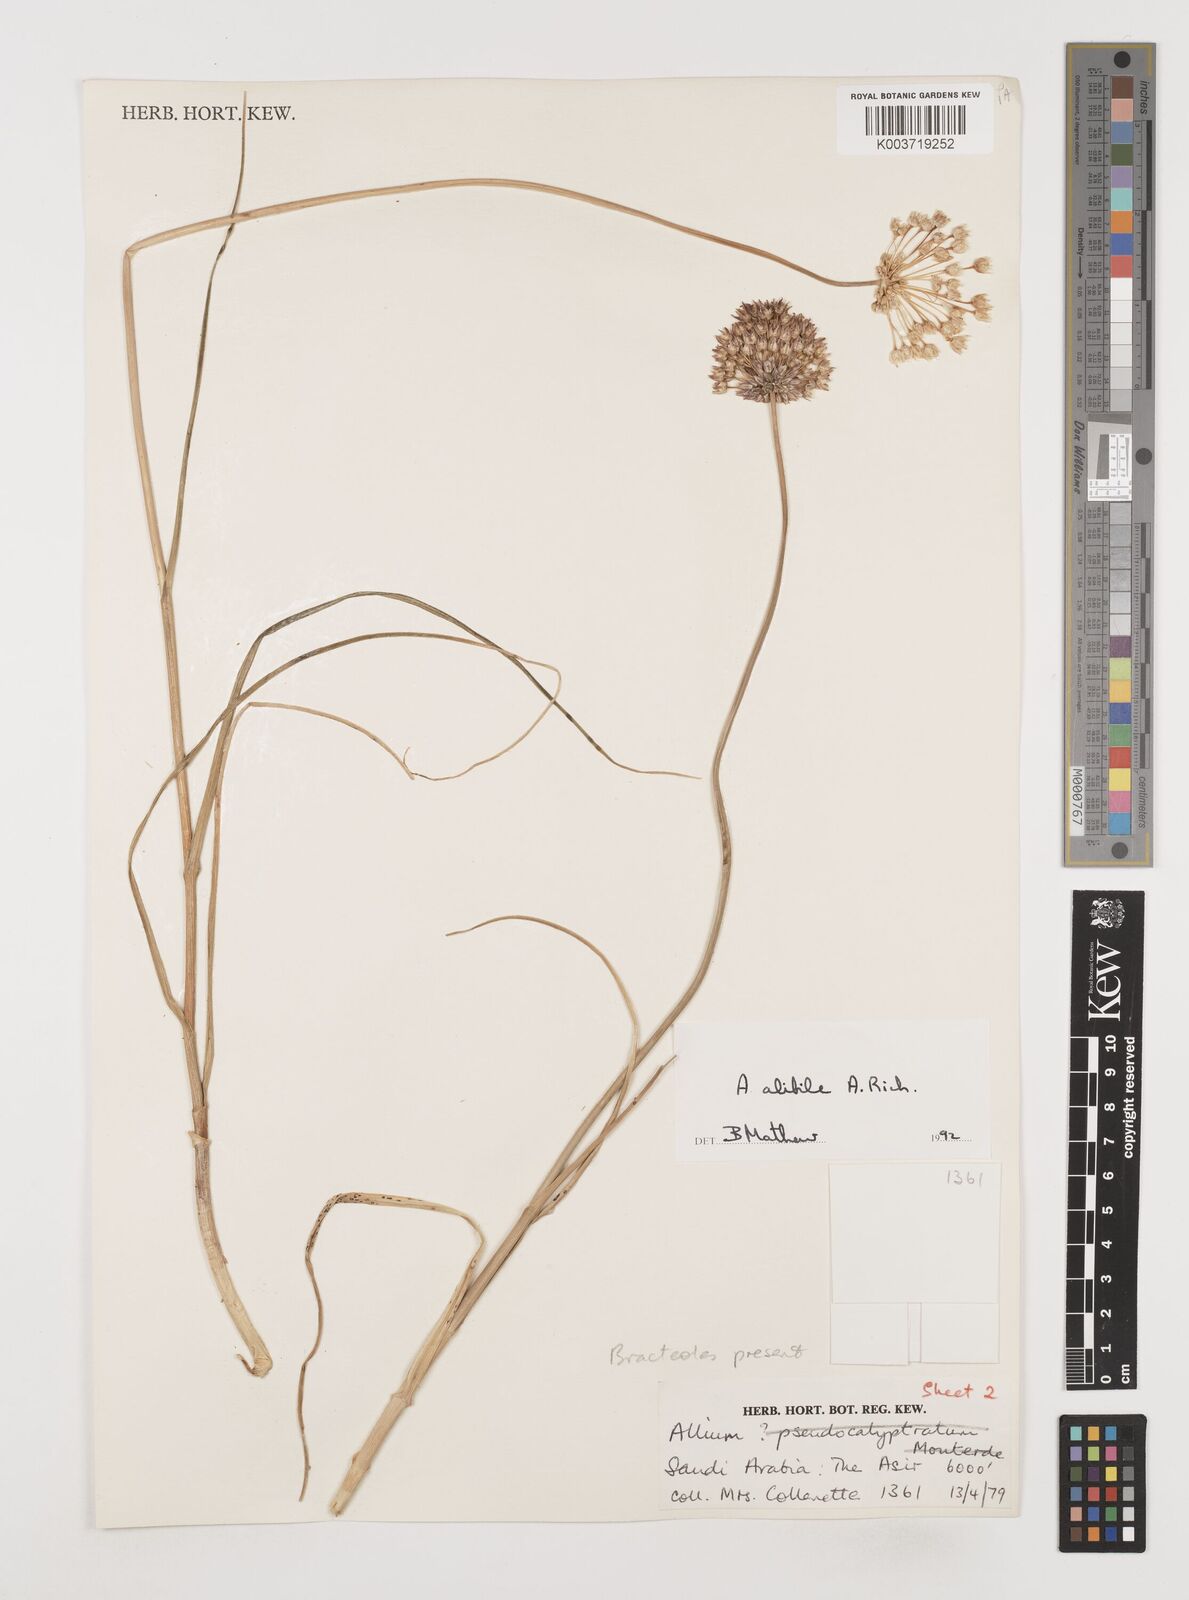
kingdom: Plantae
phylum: Tracheophyta
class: Liliopsida
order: Asparagales
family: Amaryllidaceae
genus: Allium
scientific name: Allium alibile
